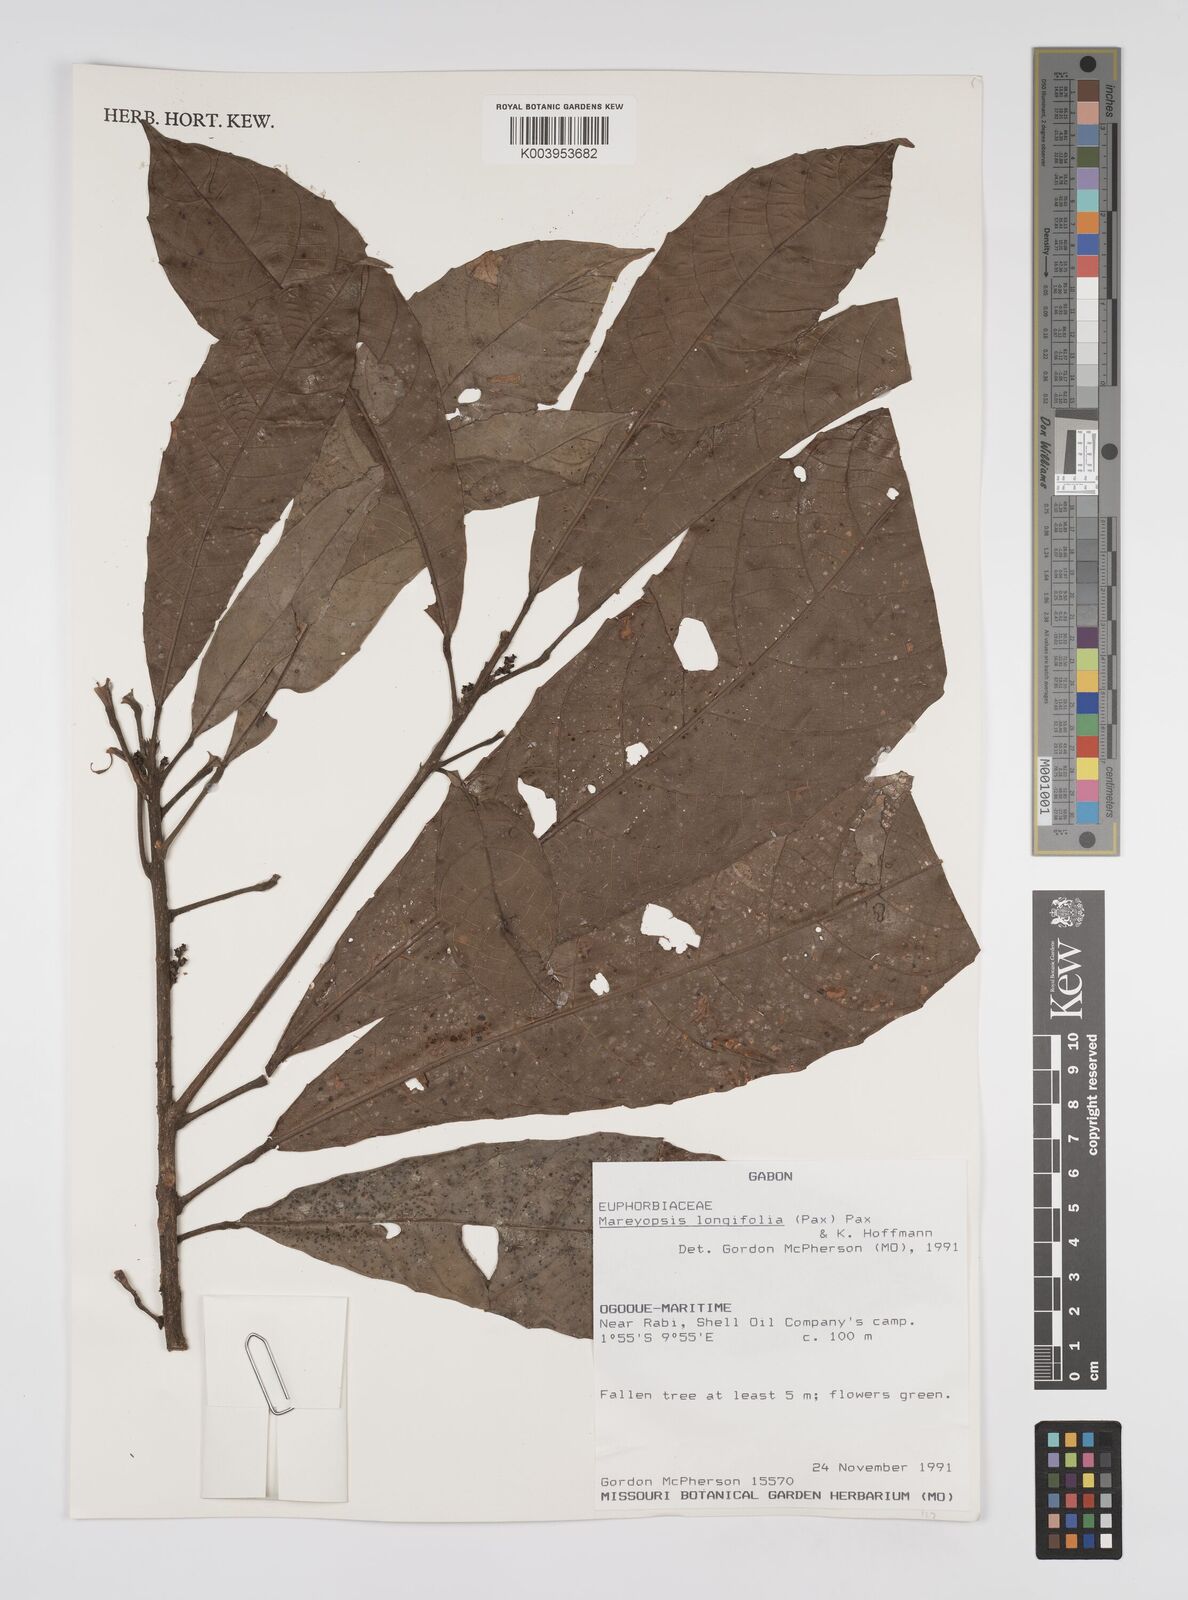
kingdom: Plantae
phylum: Tracheophyta
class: Magnoliopsida
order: Malpighiales
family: Euphorbiaceae
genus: Mareyopsis
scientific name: Mareyopsis longifolia
